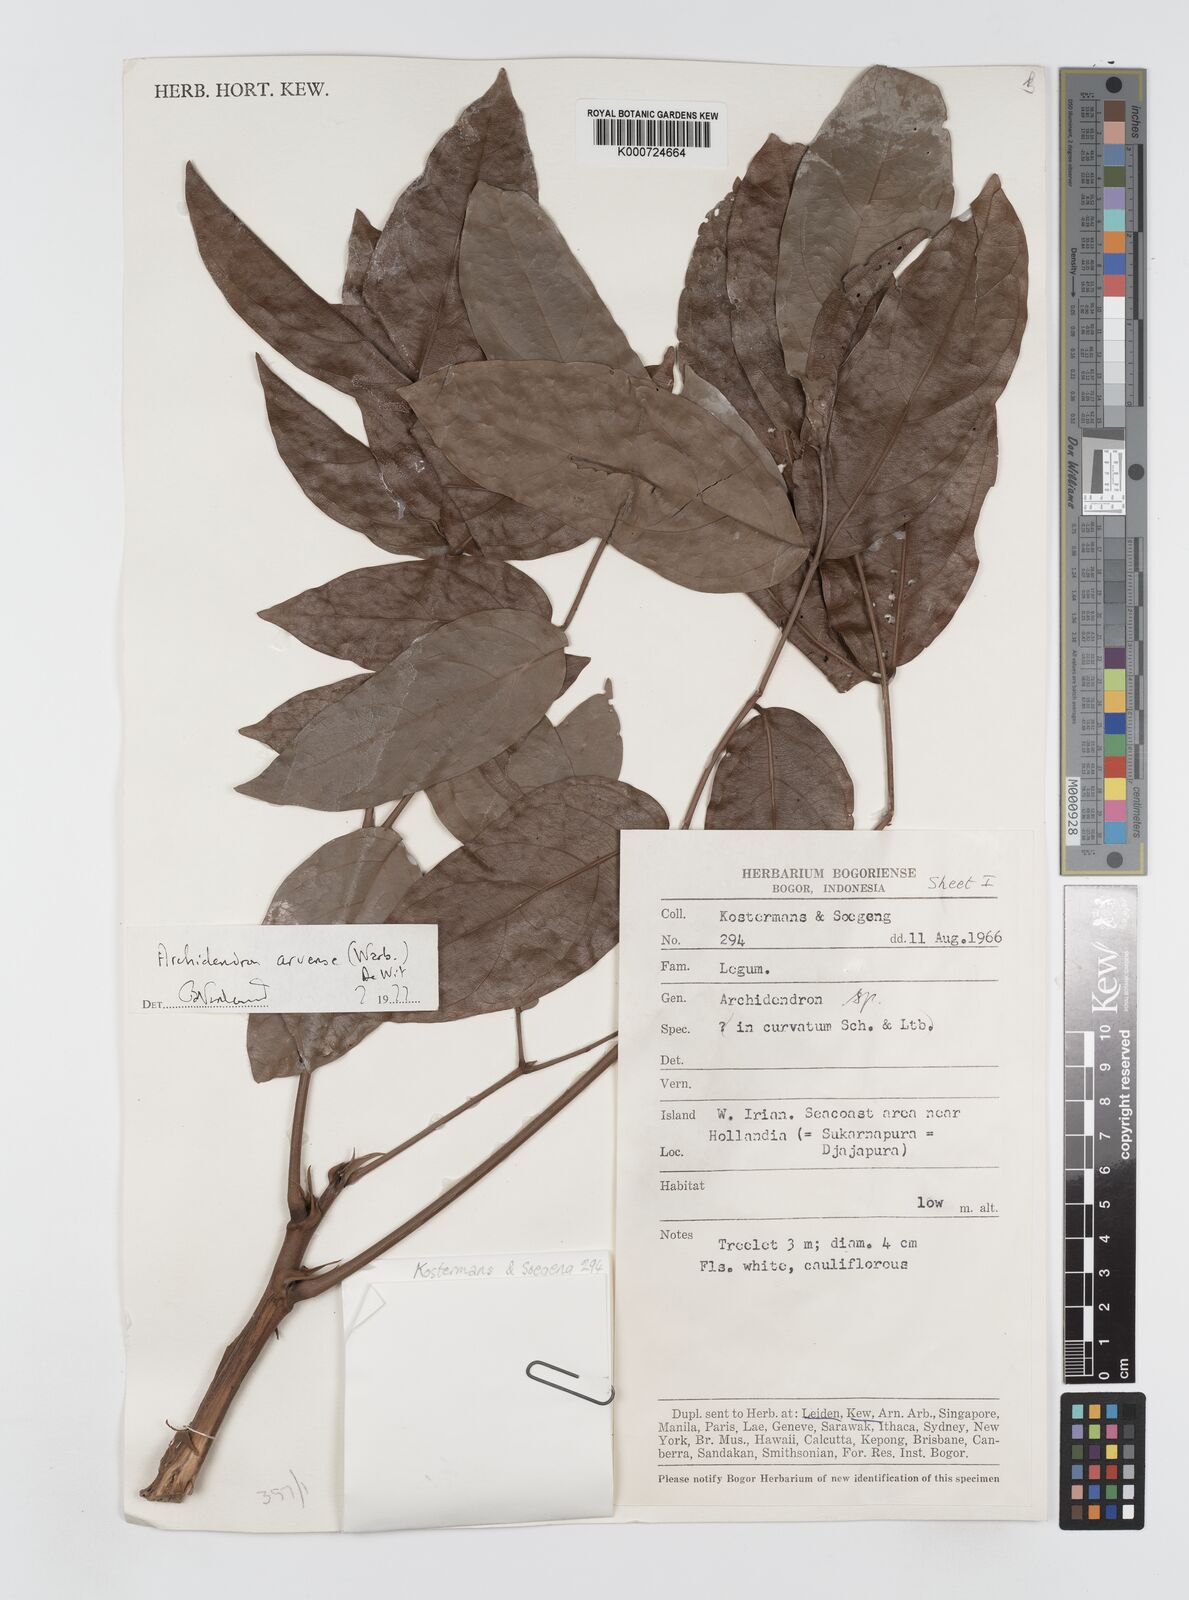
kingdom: Plantae
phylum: Tracheophyta
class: Magnoliopsida
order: Fabales
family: Fabaceae
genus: Archidendron
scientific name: Archidendron aruense
